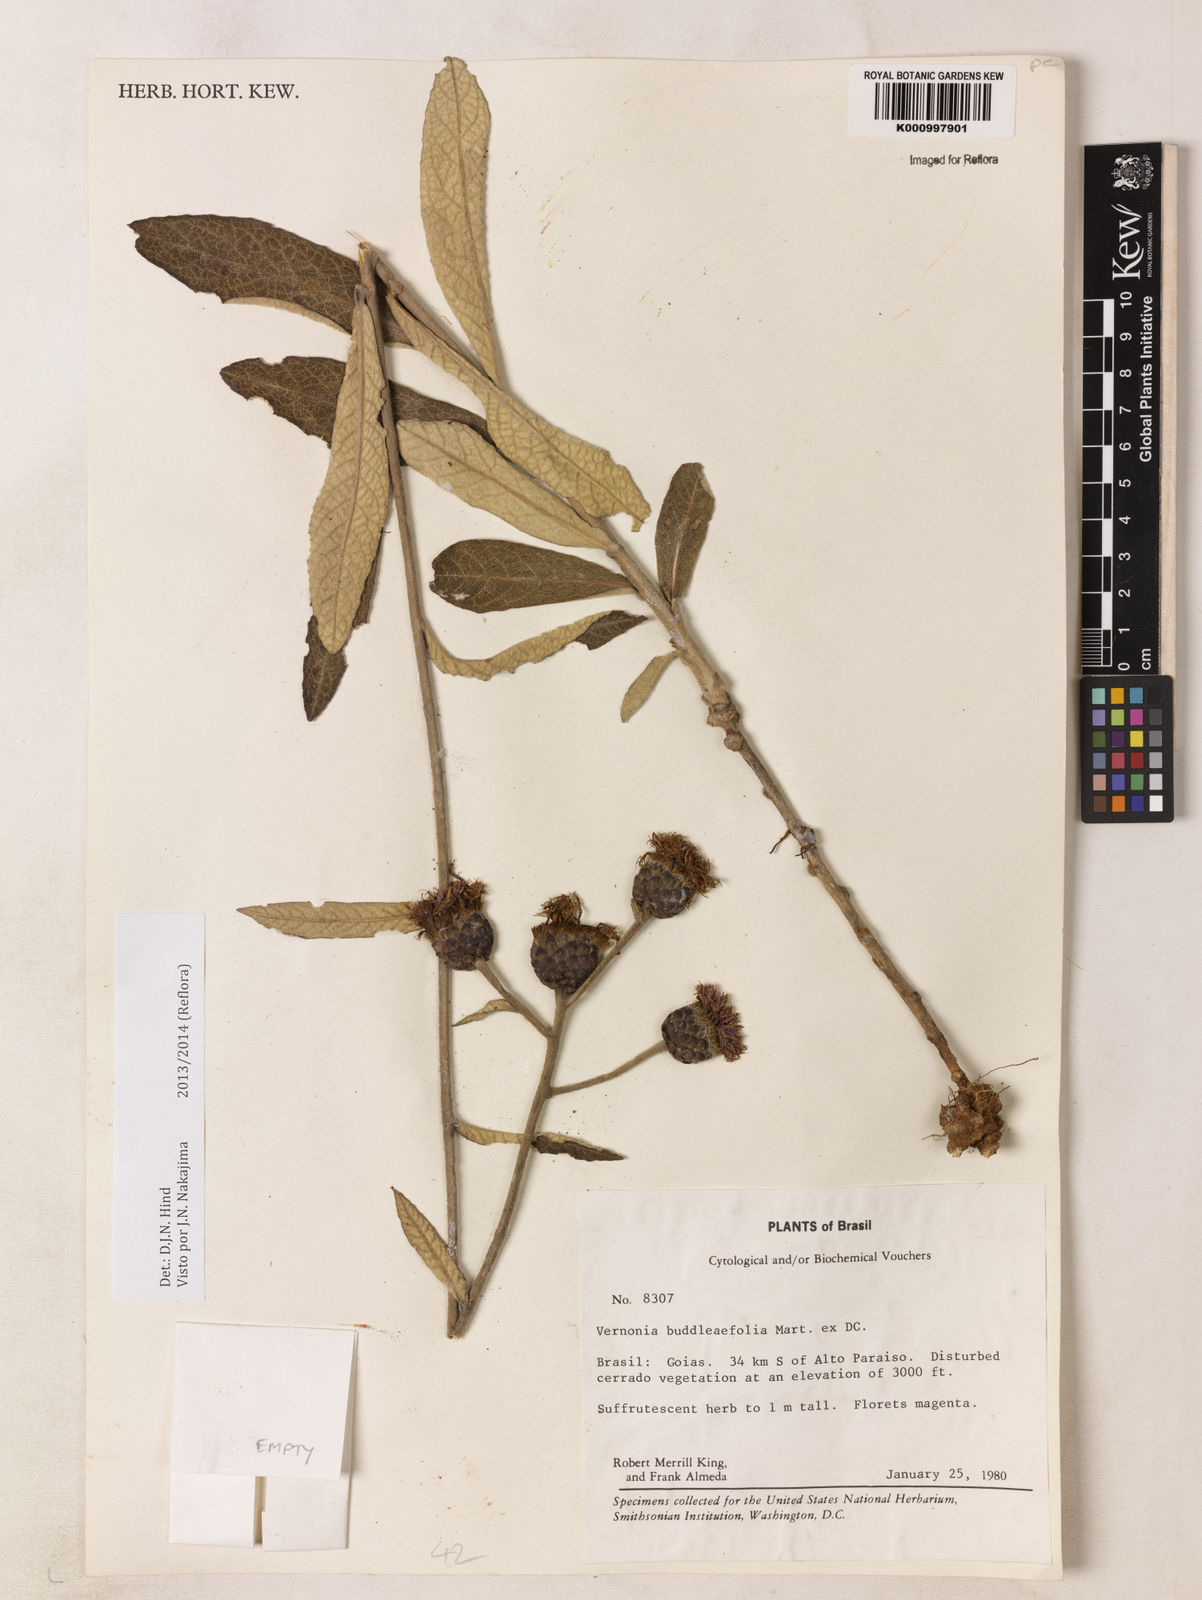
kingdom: Plantae
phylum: Tracheophyta
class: Magnoliopsida
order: Asterales
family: Asteraceae
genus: Lessingianthus
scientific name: Lessingianthus buddlejifolius
